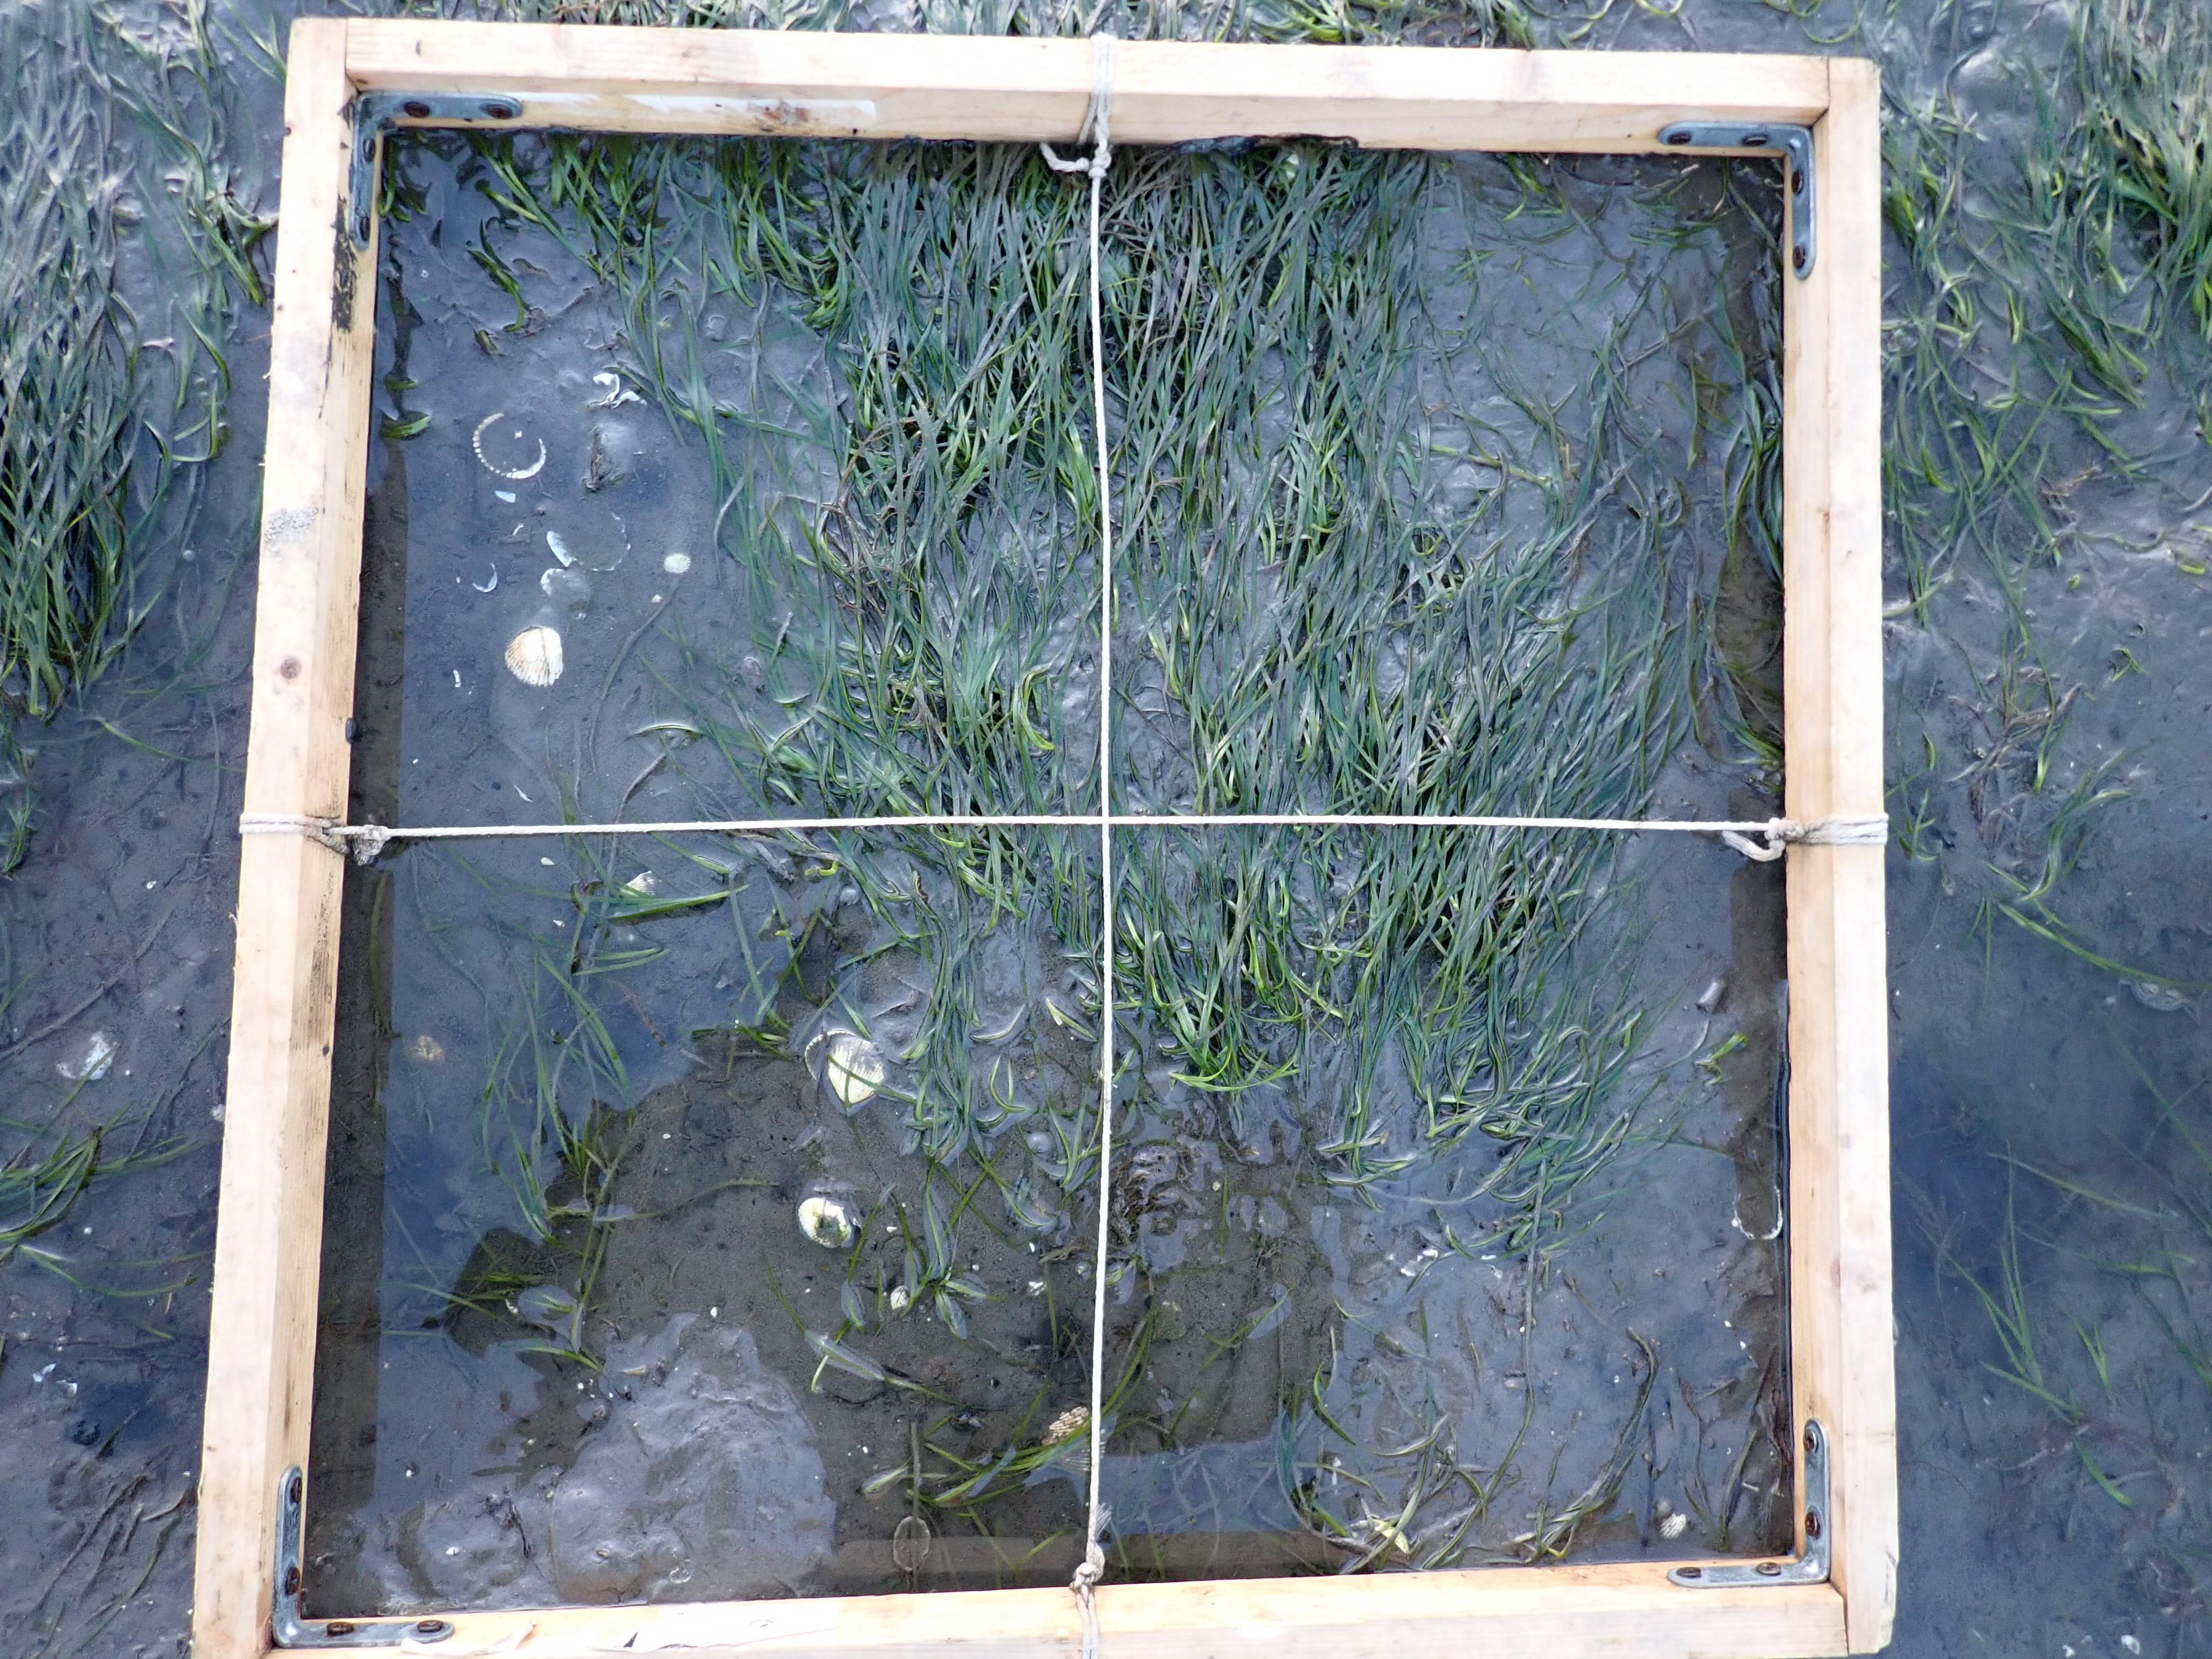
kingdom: Plantae
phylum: Tracheophyta
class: Liliopsida
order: Alismatales
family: Zosteraceae
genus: Zostera
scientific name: Zostera noltii
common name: Dwarf eelgrass
